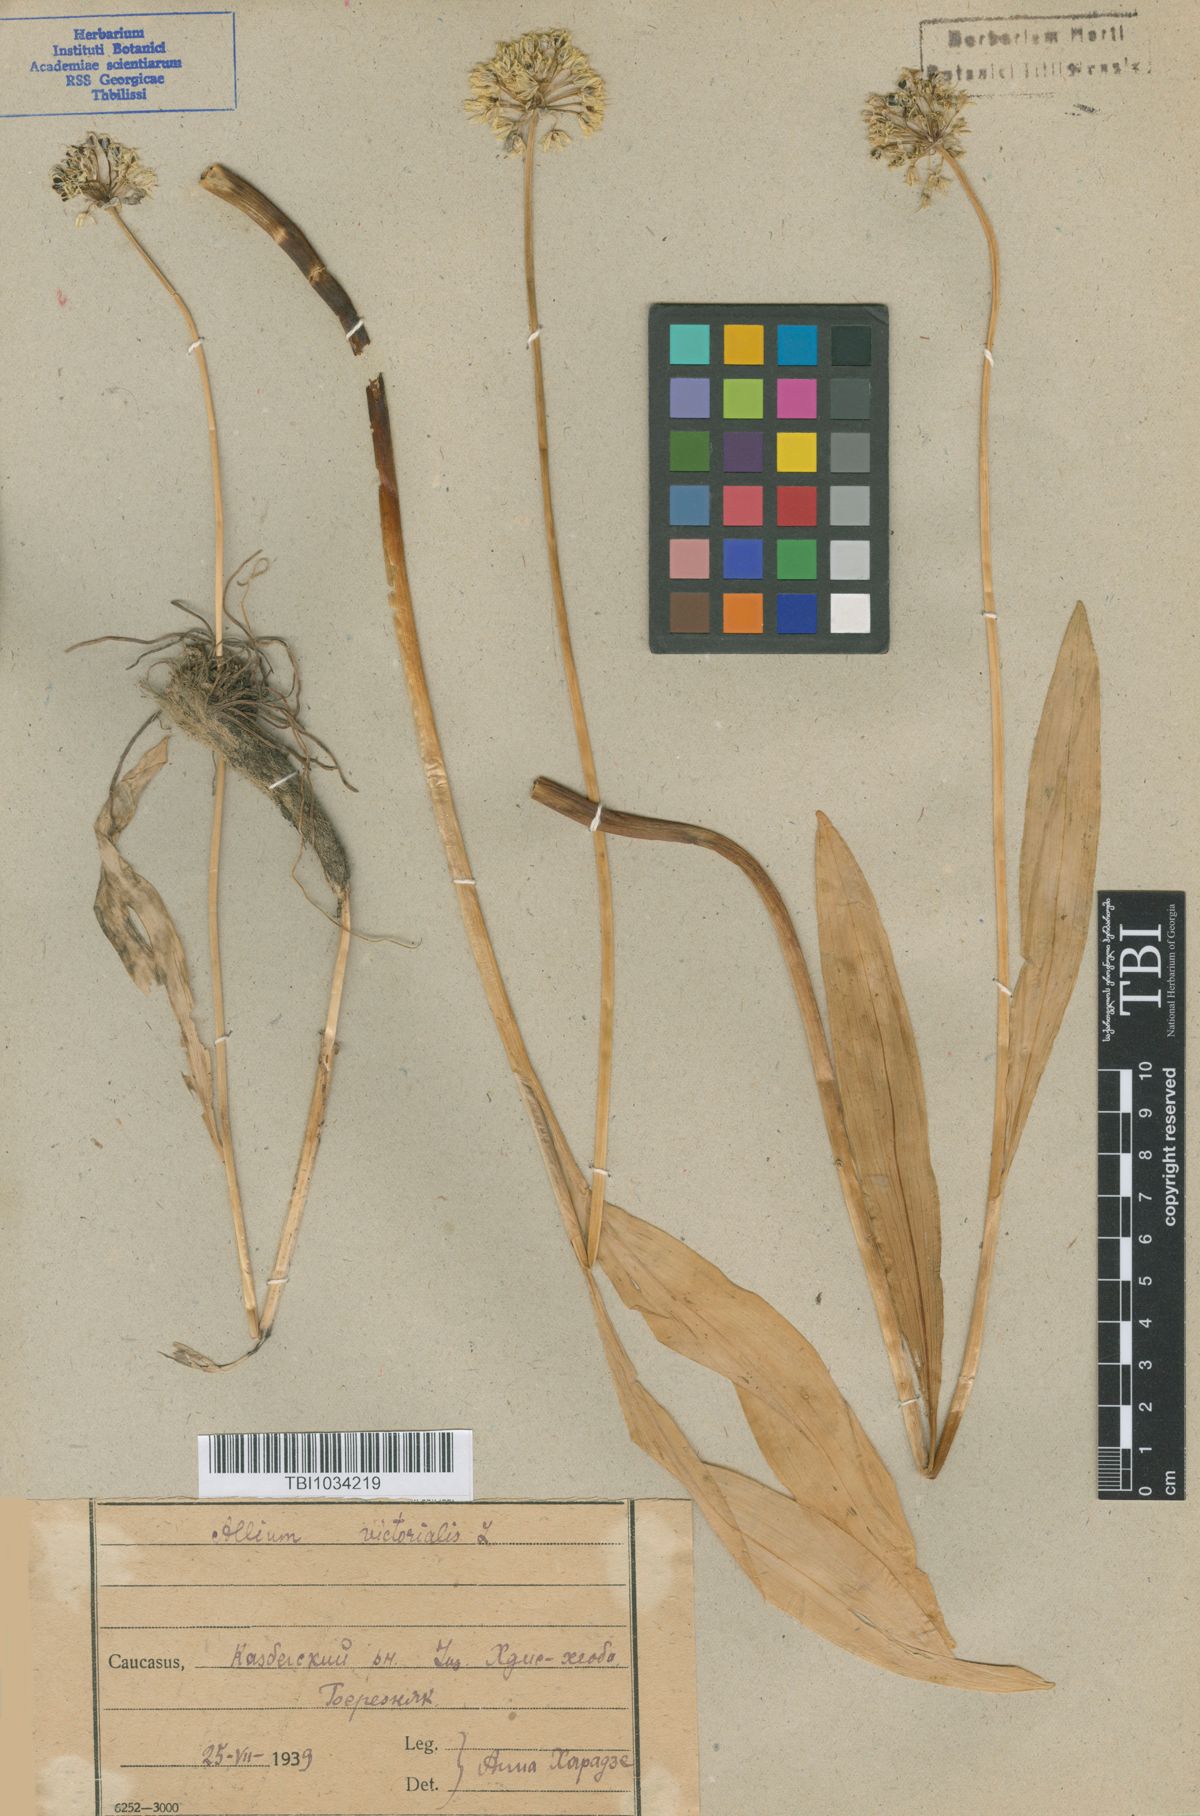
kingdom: Plantae
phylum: Tracheophyta
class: Liliopsida
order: Asparagales
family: Amaryllidaceae
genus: Allium
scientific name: Allium victorialis
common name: Alpine leek
